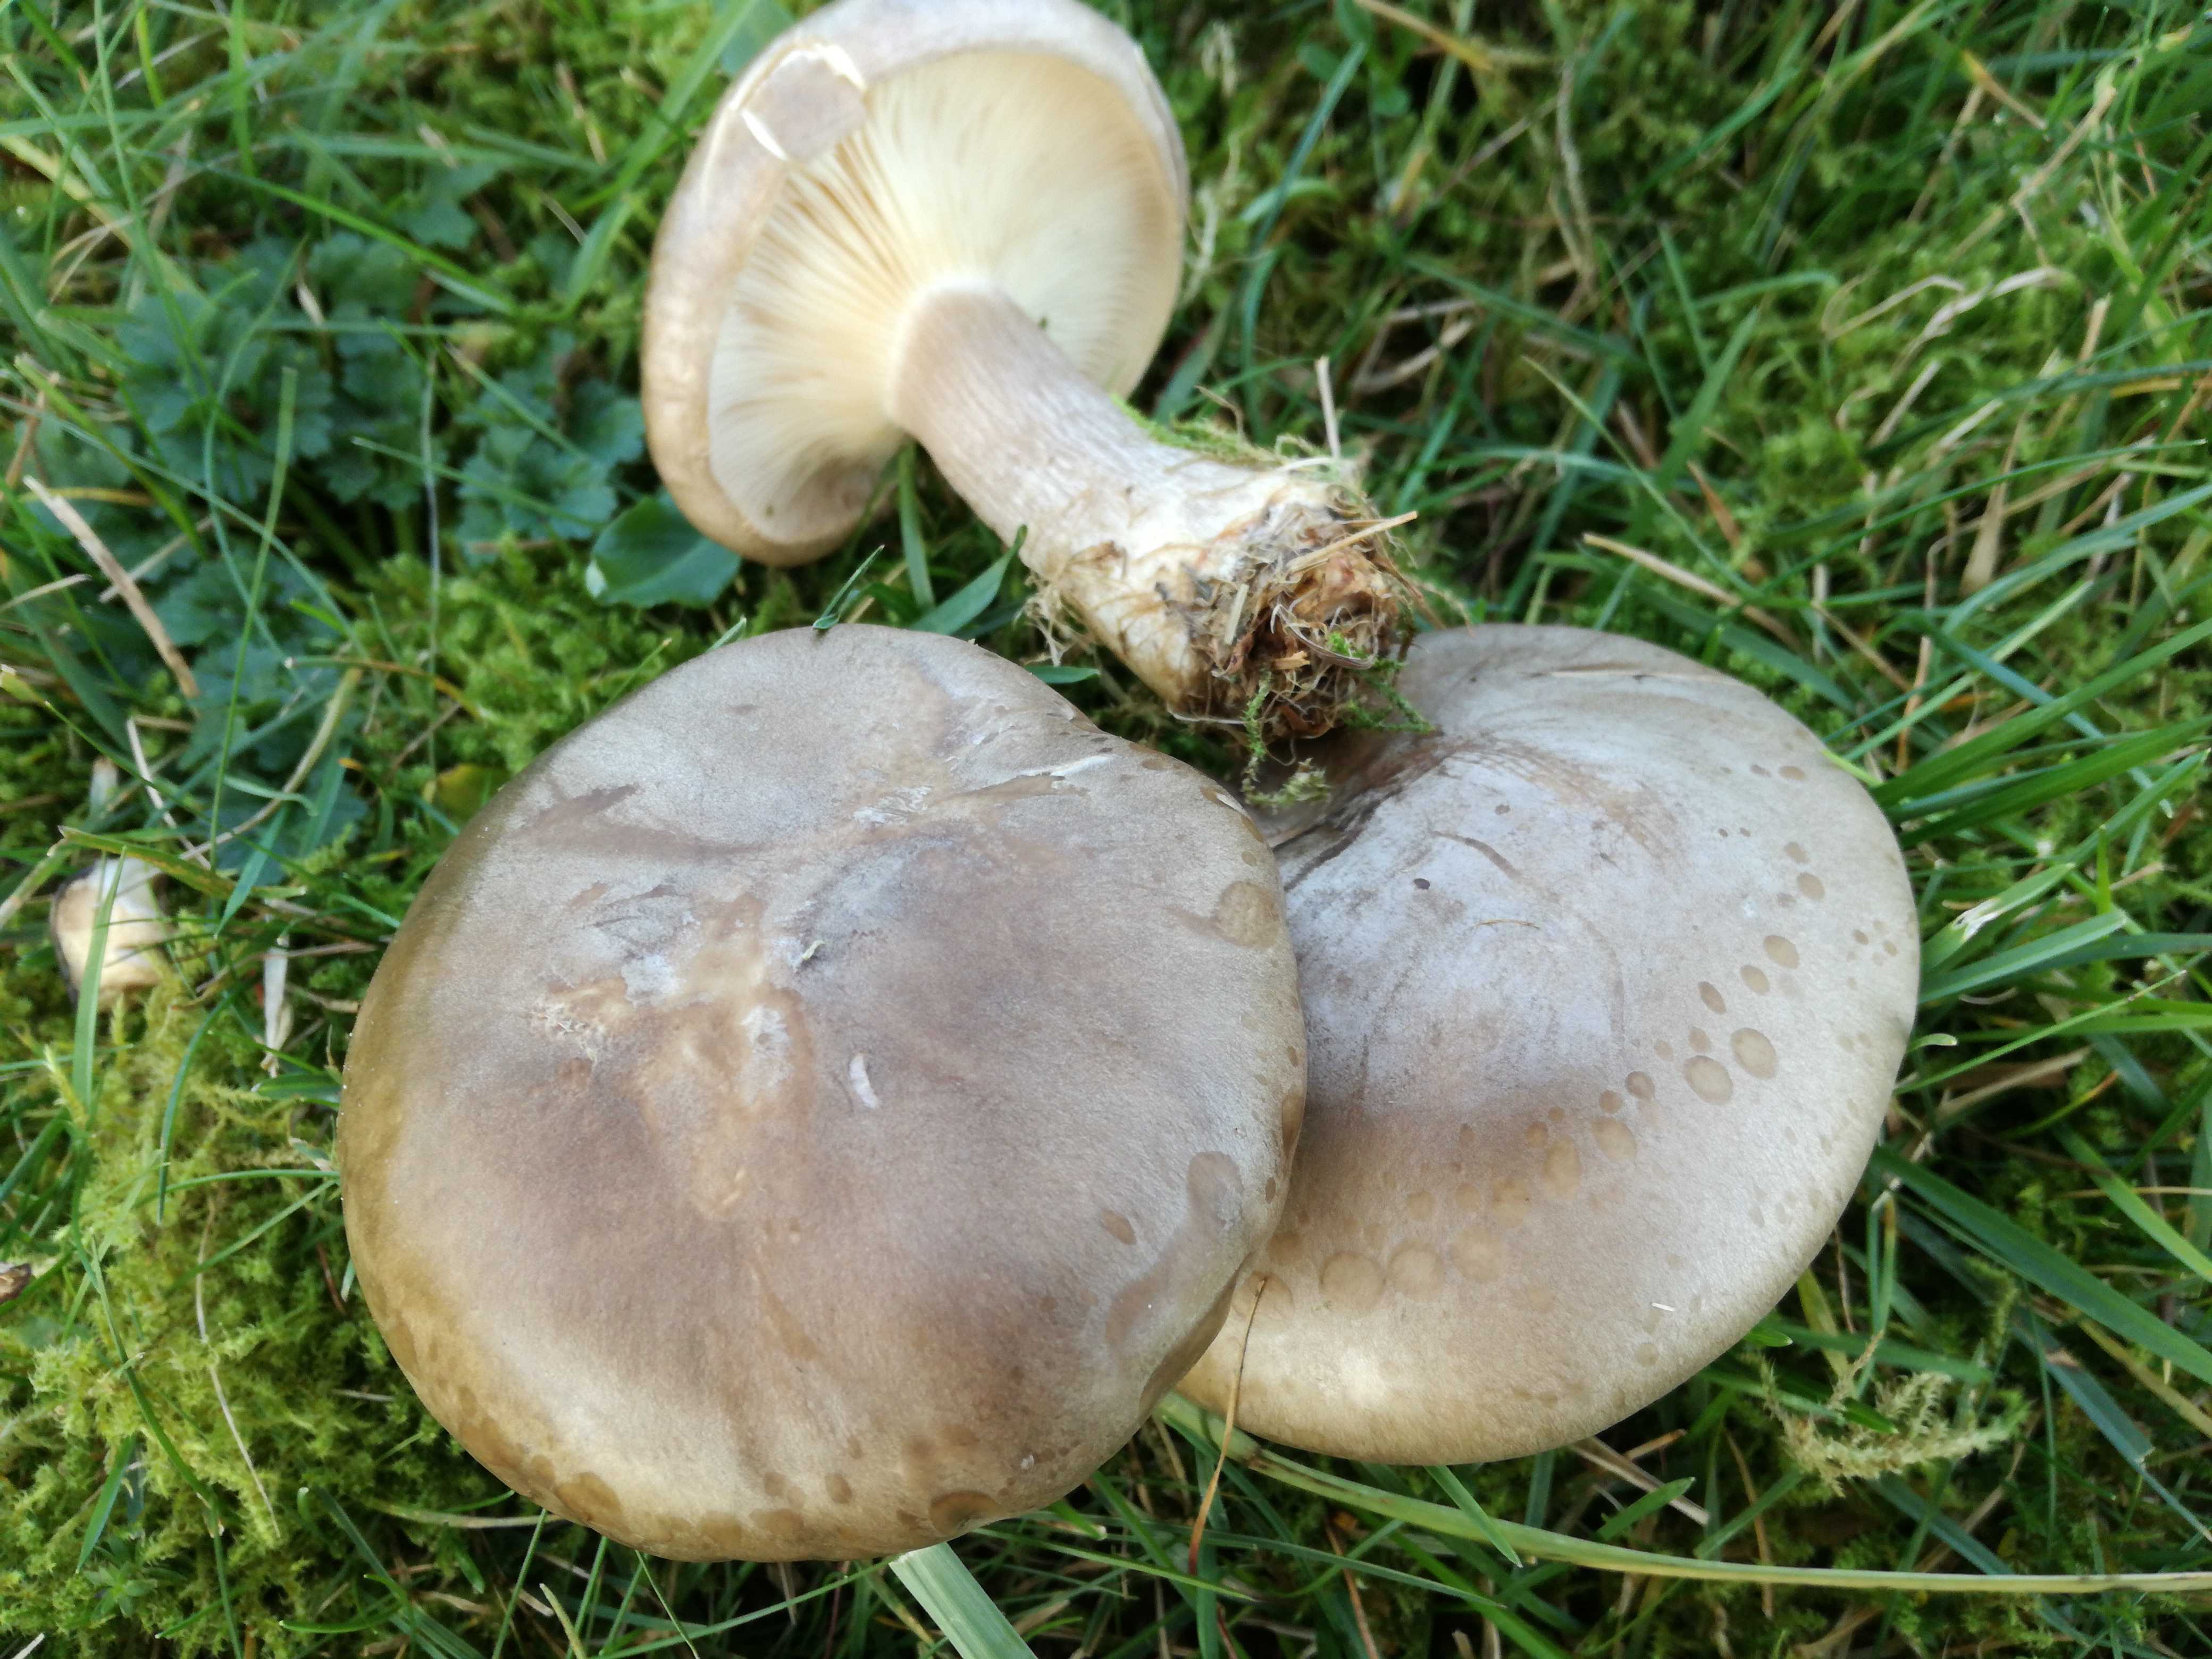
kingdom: Fungi
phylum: Basidiomycota
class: Agaricomycetes
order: Agaricales
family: Tricholomataceae
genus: Clitocybe
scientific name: Clitocybe nebularis
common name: tåge-tragthat
